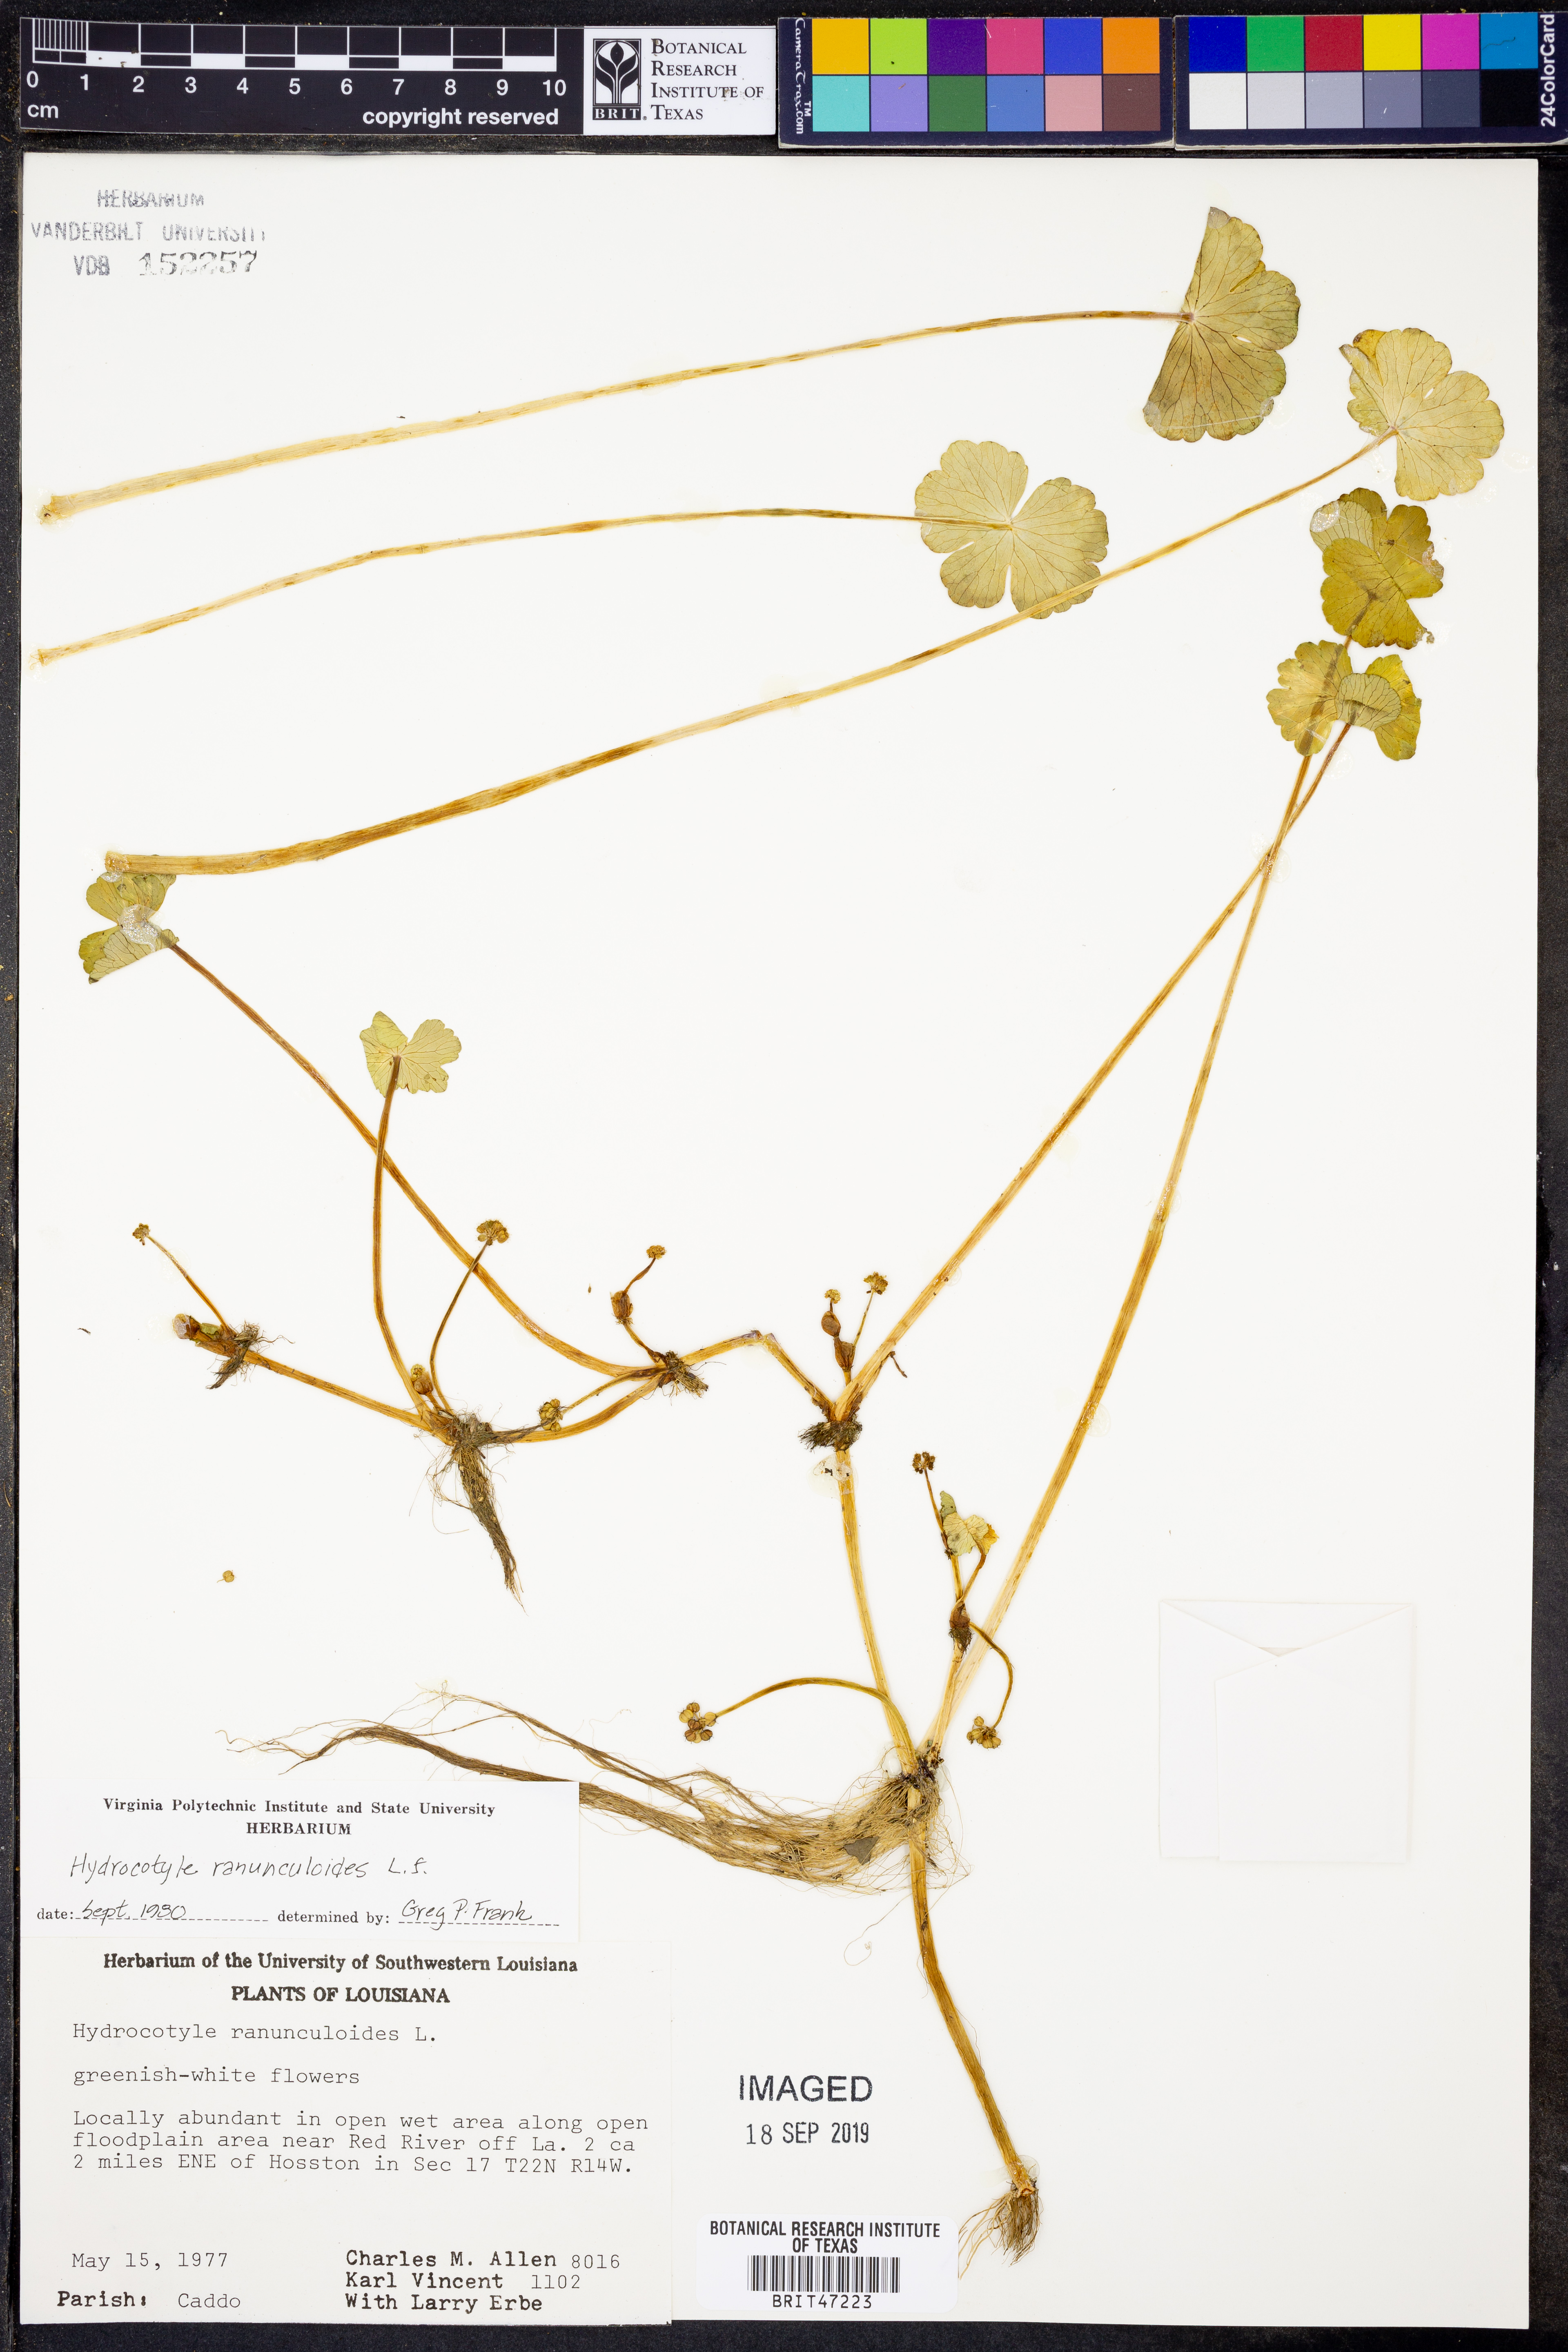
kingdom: Plantae
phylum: Tracheophyta
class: Polypodiopsida
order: Schizaeales
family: Anemiaceae
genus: Anemia
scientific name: Anemia karwinskyana
